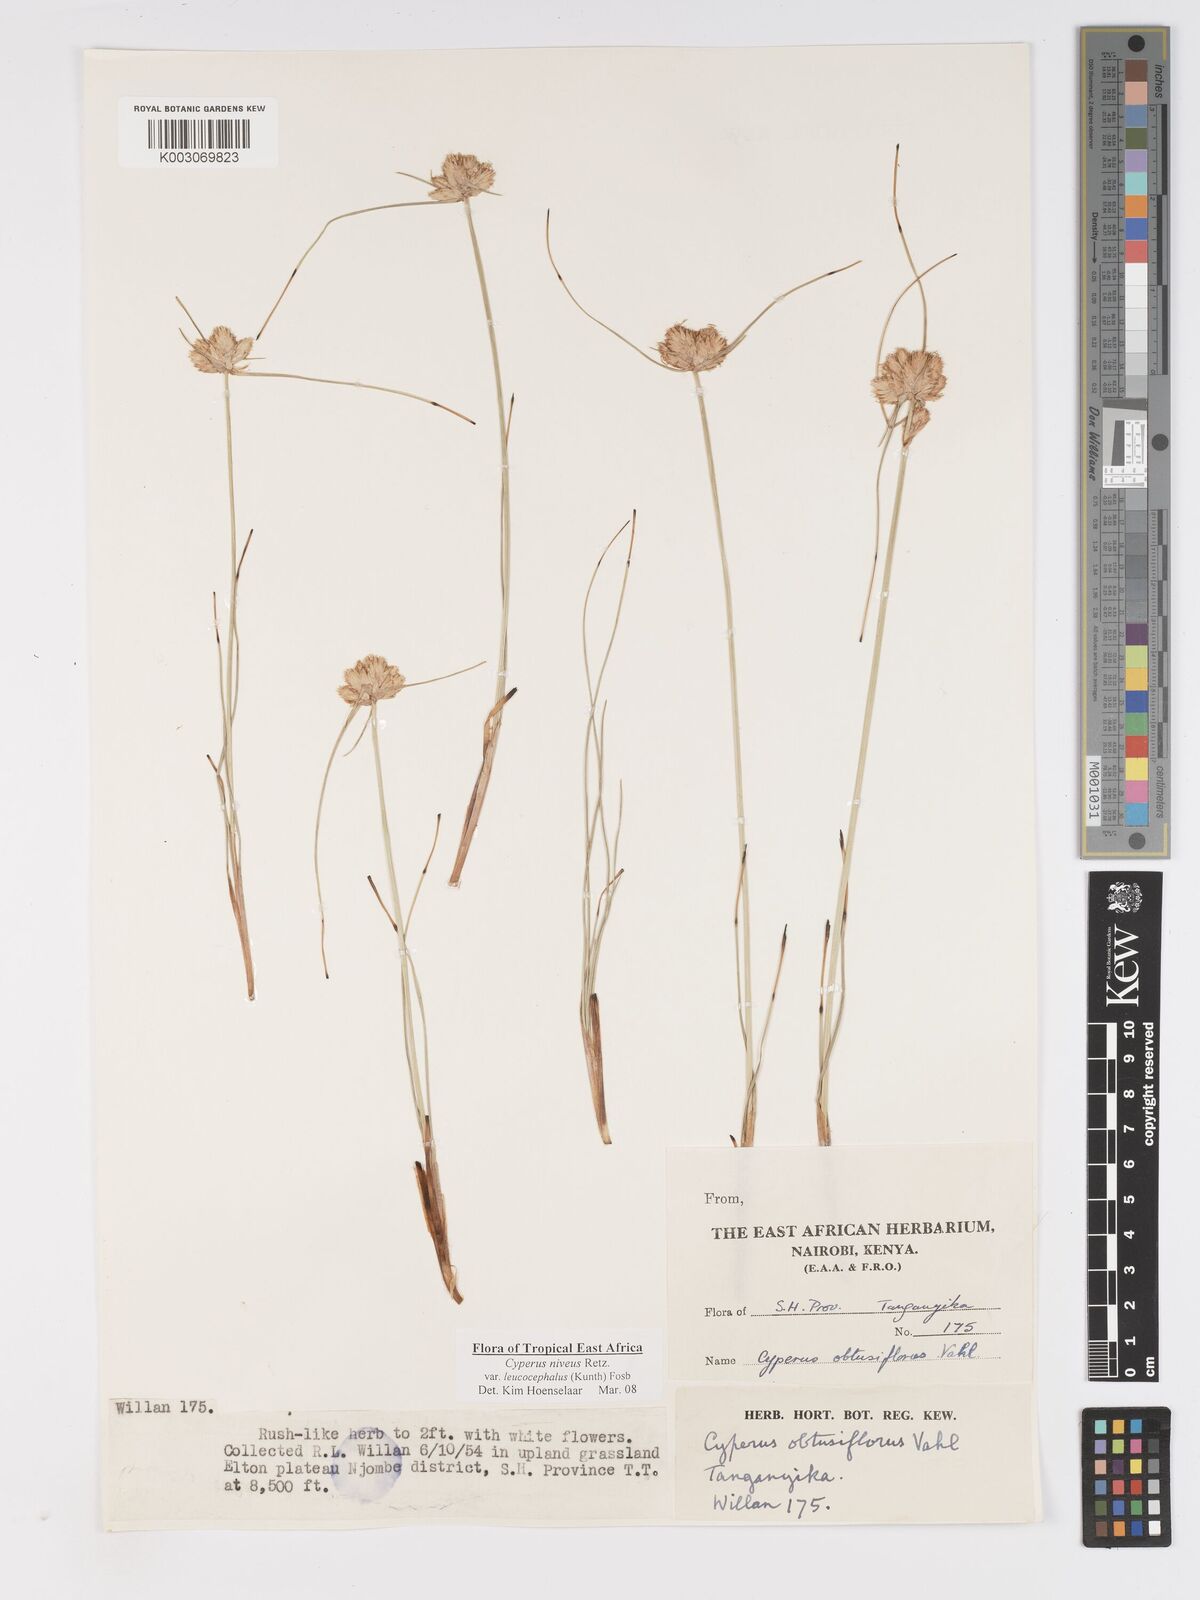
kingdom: Plantae
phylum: Tracheophyta
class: Liliopsida
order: Poales
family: Cyperaceae
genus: Cyperus
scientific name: Cyperus niveus
